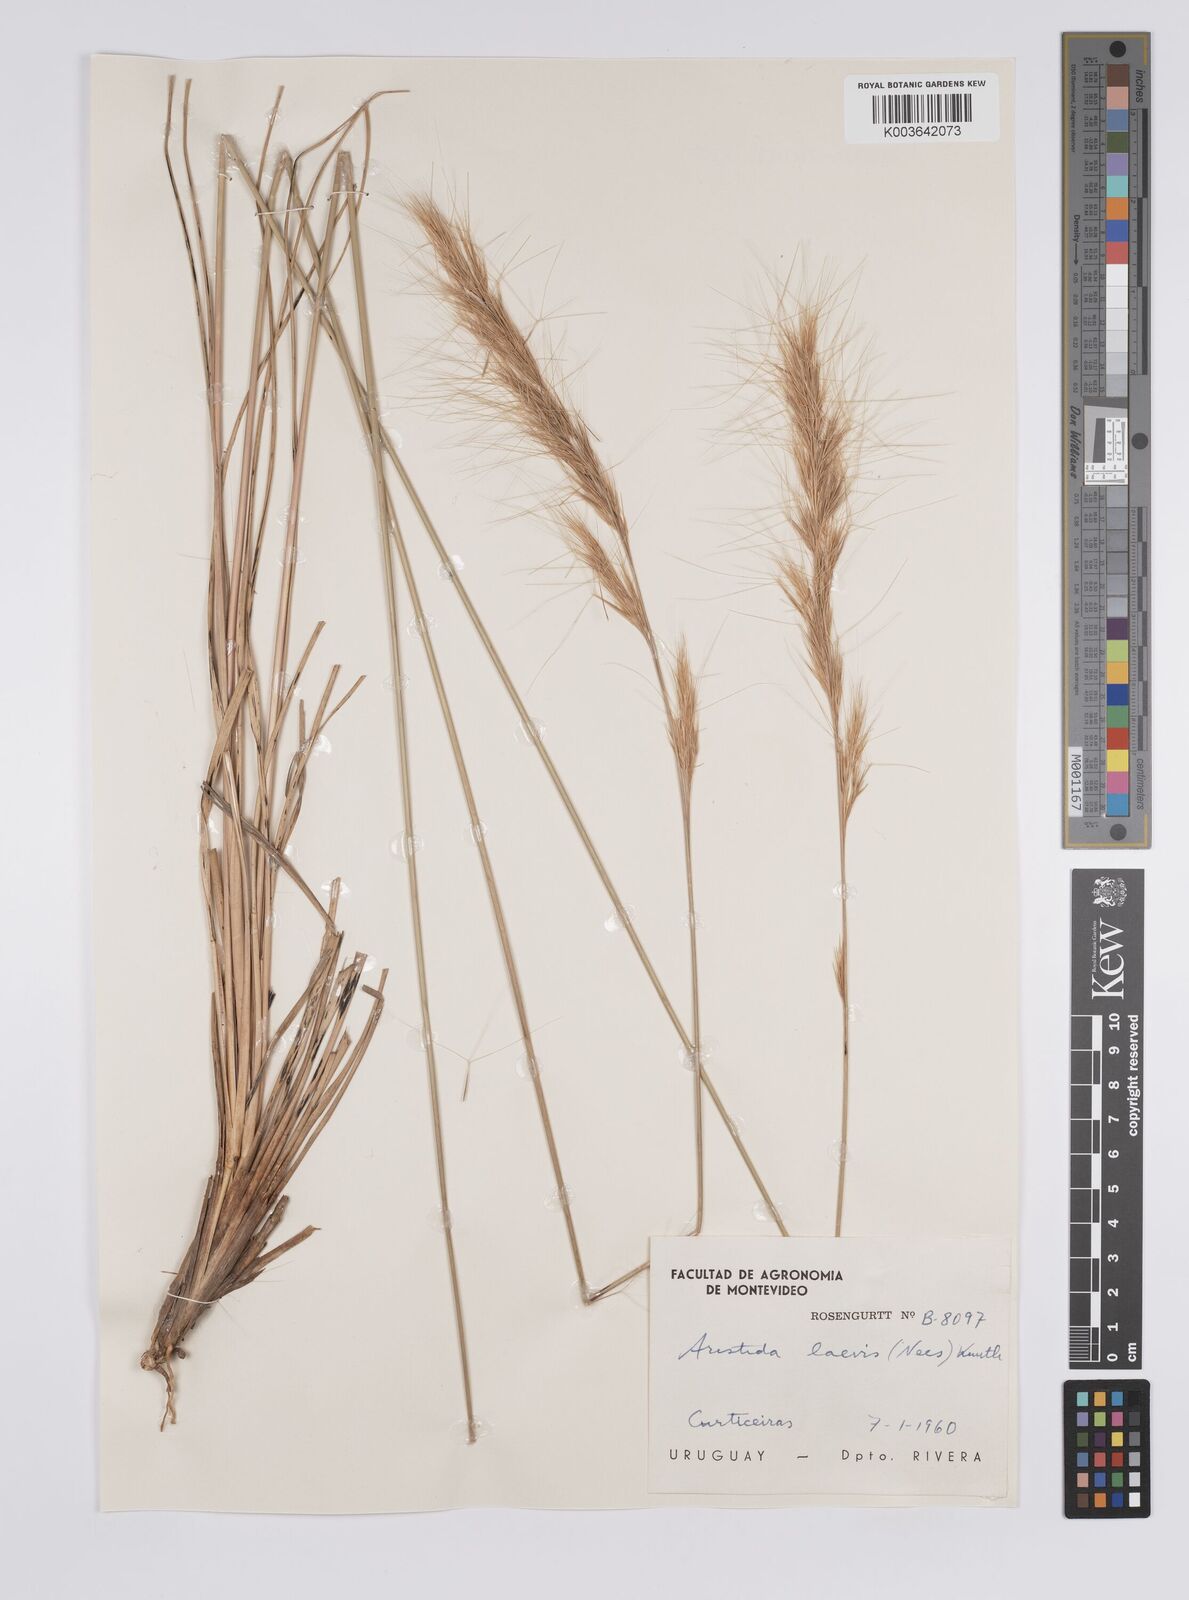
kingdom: Plantae
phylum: Tracheophyta
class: Liliopsida
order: Poales
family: Poaceae
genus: Aristida
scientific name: Aristida laevis
